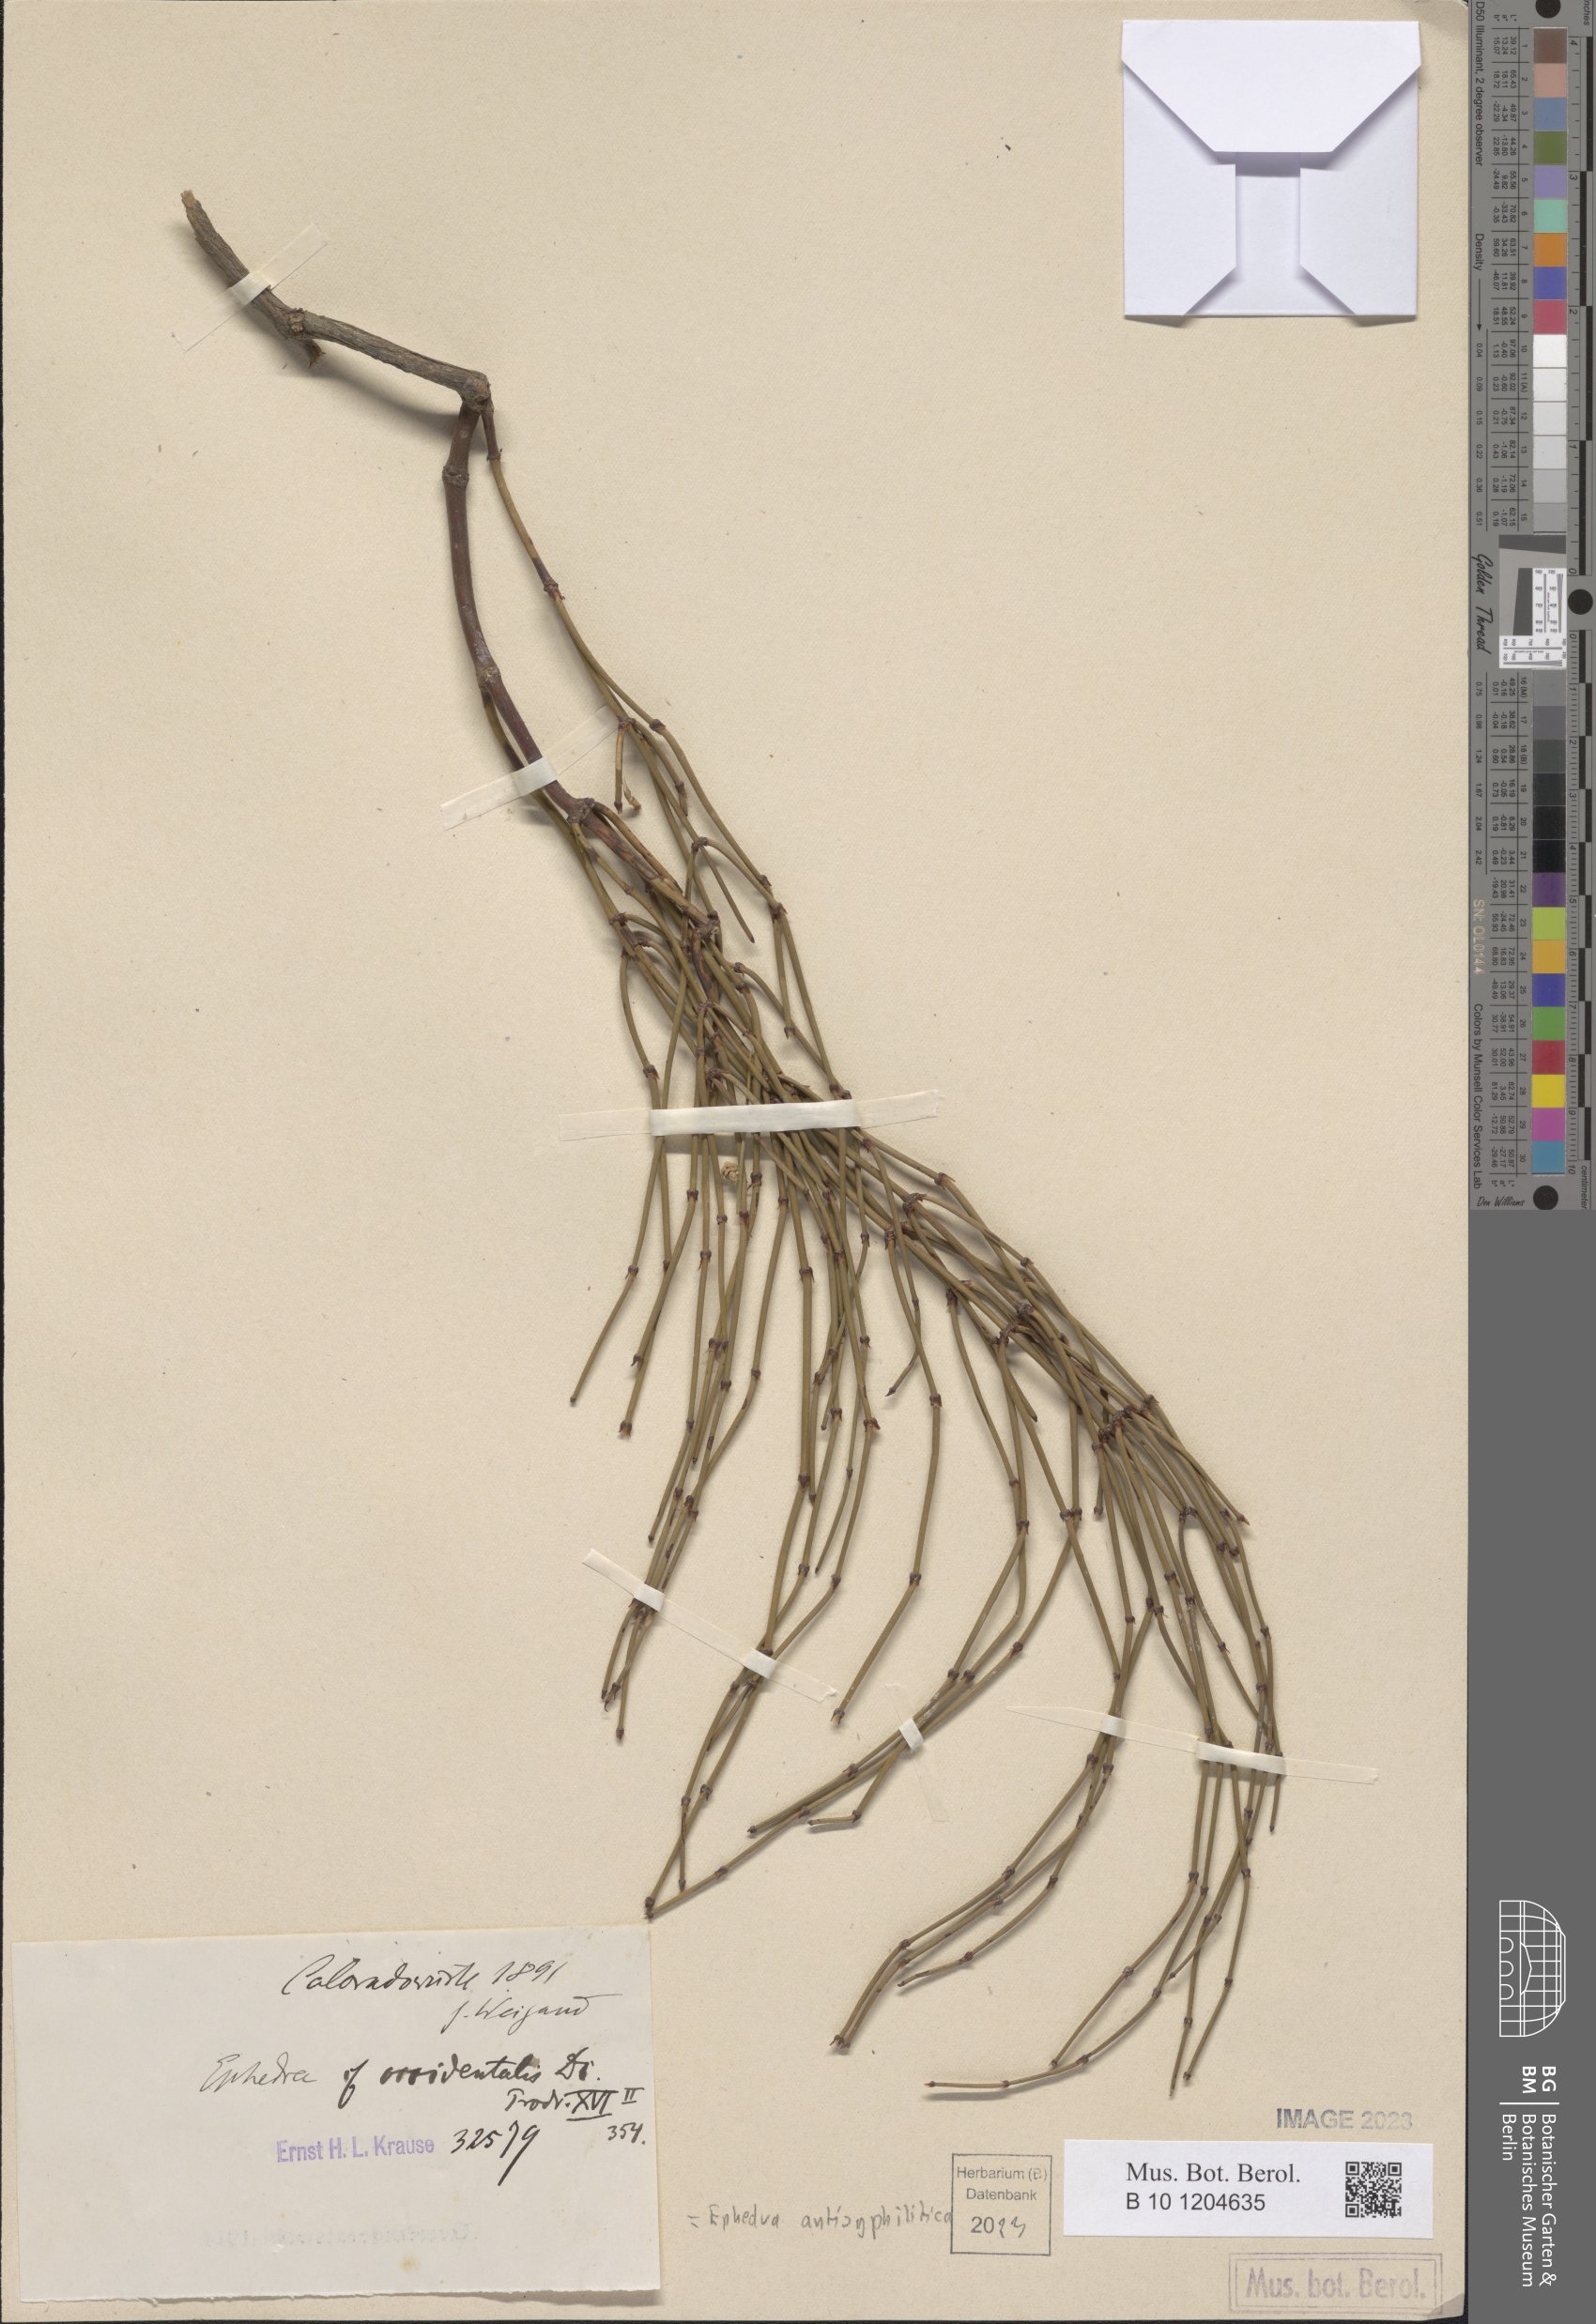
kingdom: Plantae
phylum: Tracheophyta
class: Gnetopsida
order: Ephedrales
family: Ephedraceae
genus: Ephedra
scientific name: Ephedra antisyphilitica
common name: Clipweed
